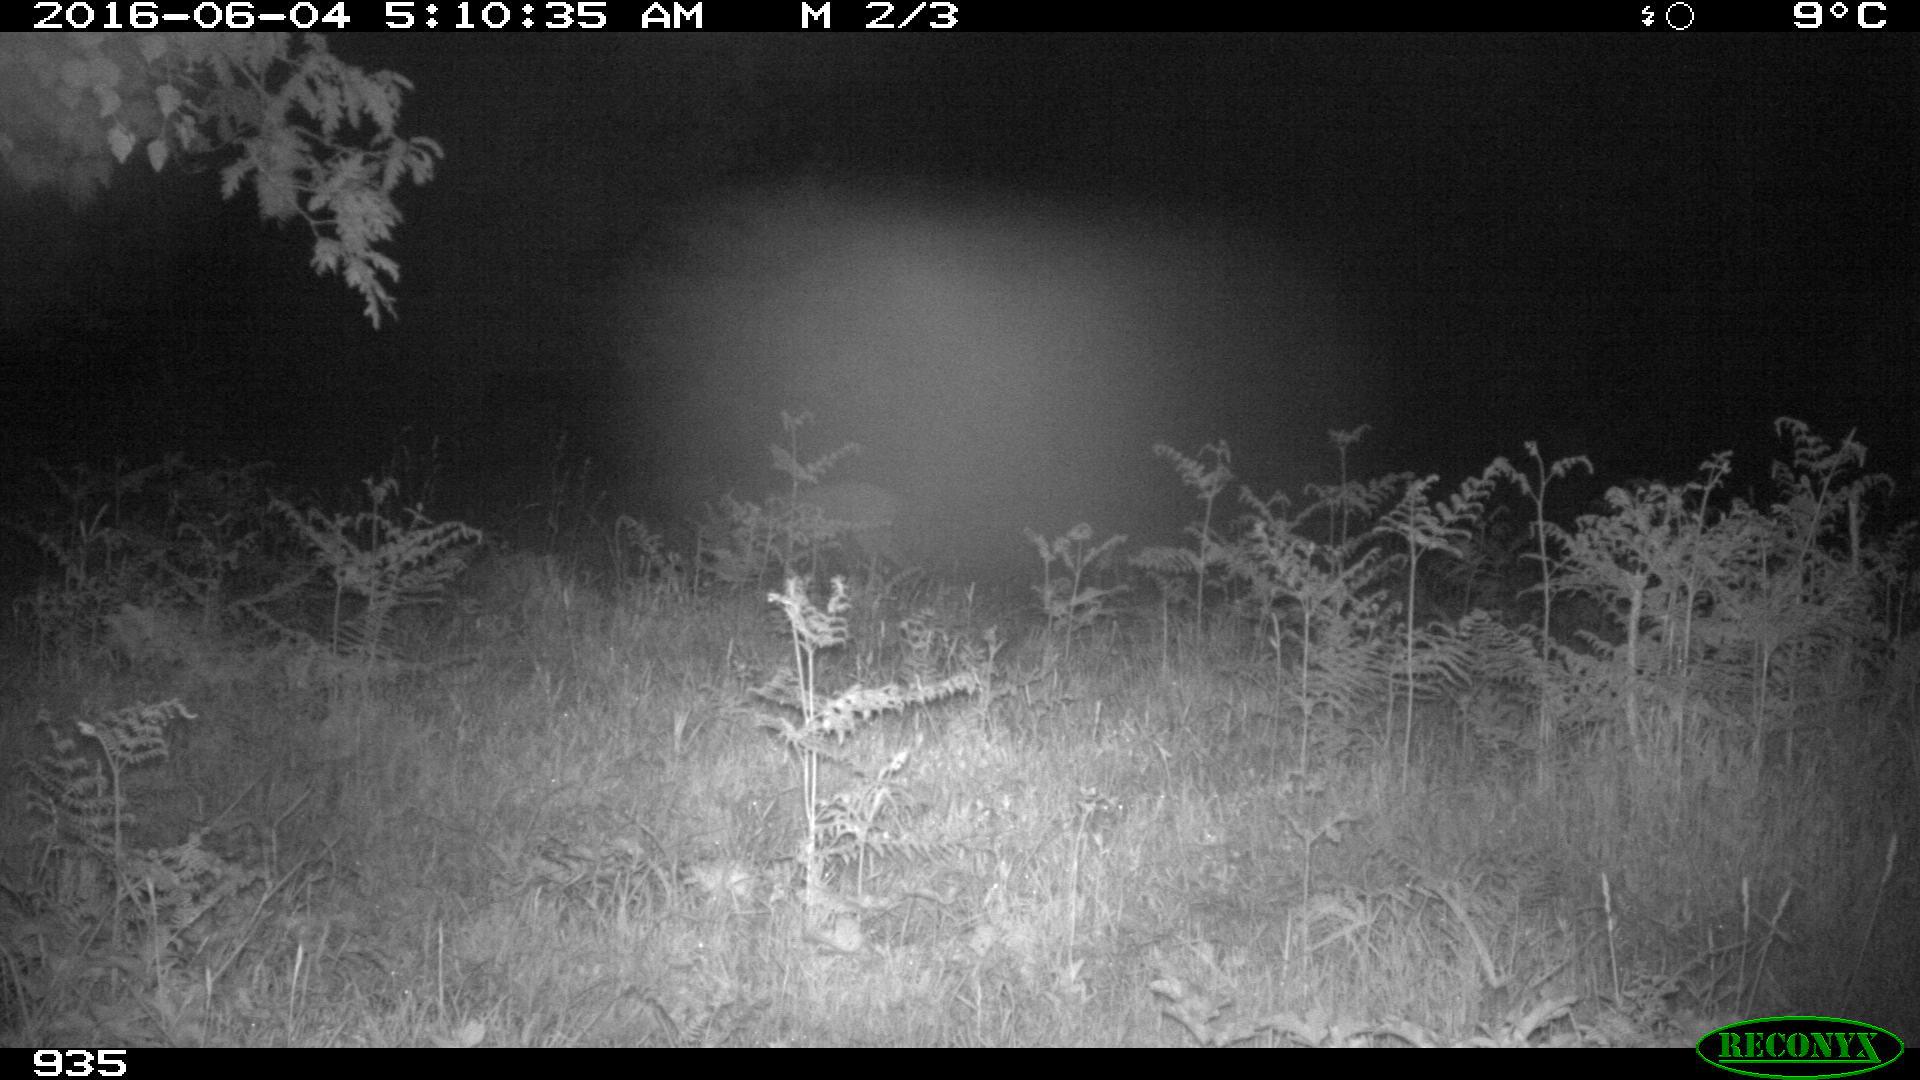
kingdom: Animalia
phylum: Chordata
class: Mammalia
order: Artiodactyla
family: Cervidae
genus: Capreolus
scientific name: Capreolus capreolus
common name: Western roe deer
